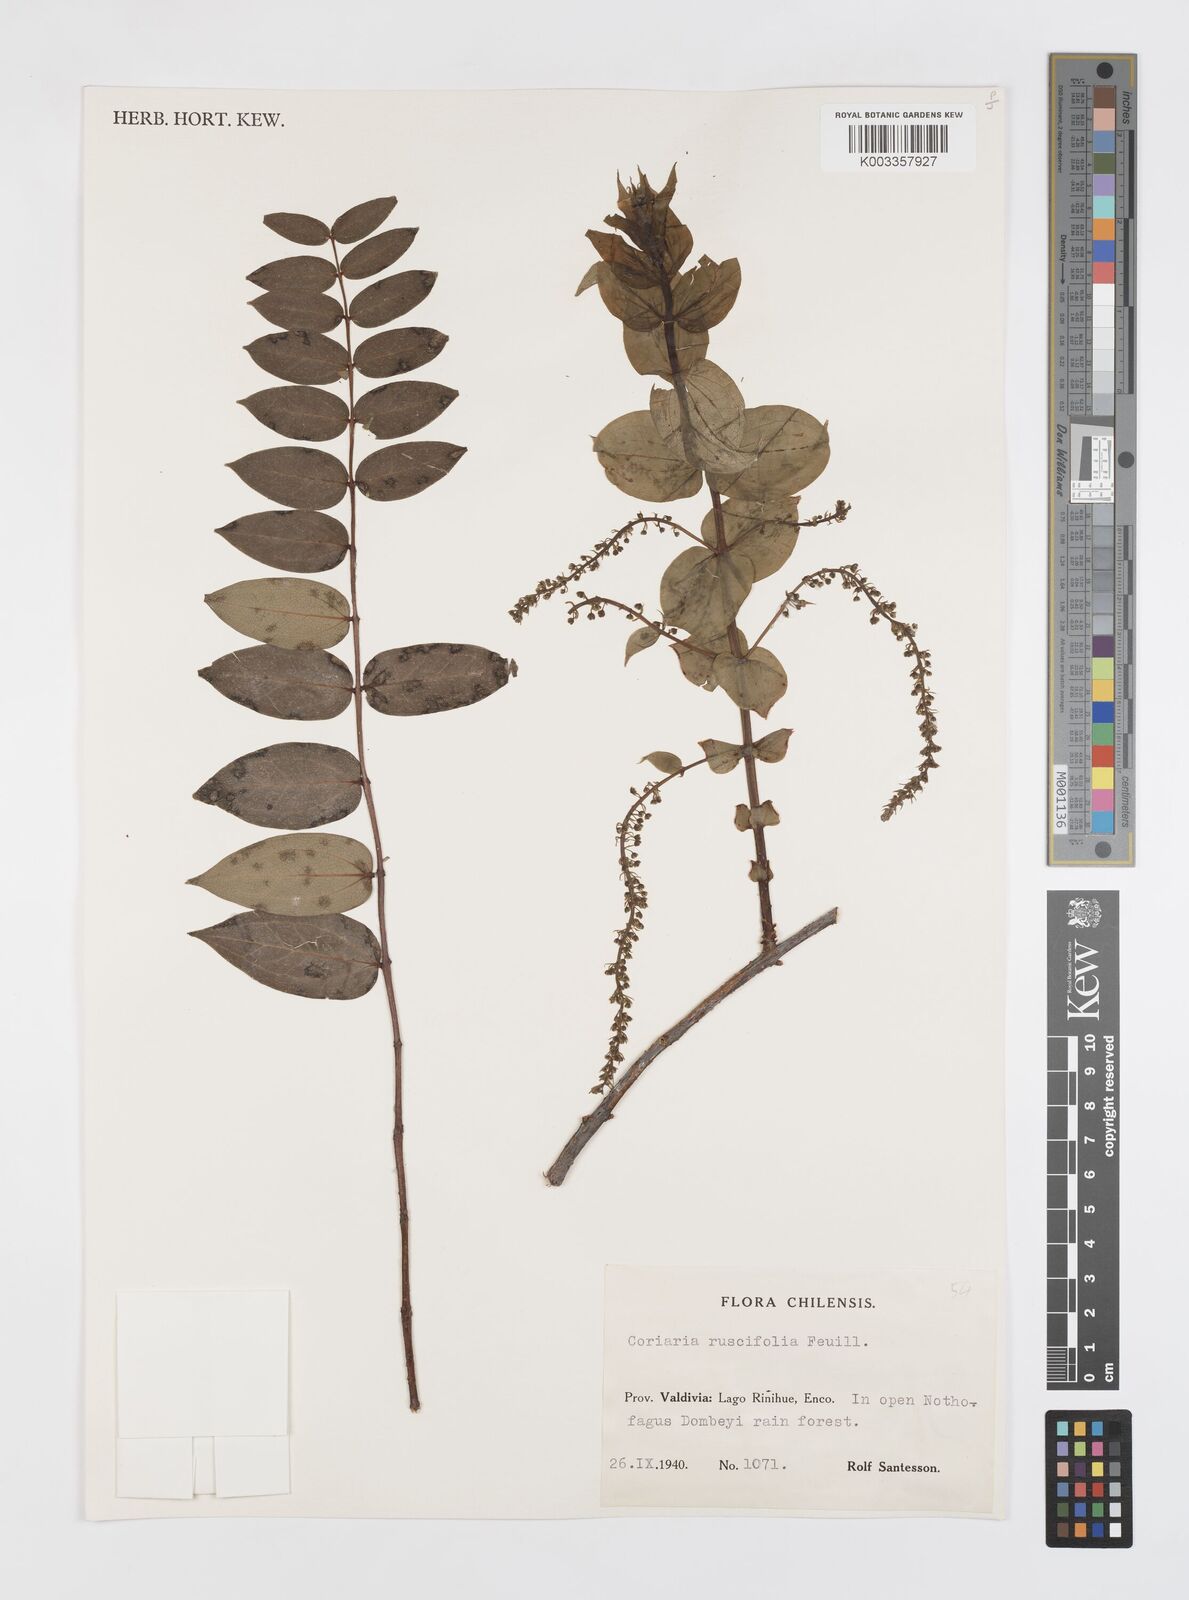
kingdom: Plantae
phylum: Tracheophyta
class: Magnoliopsida
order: Cucurbitales
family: Coriariaceae
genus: Coriaria
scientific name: Coriaria ruscifolia
